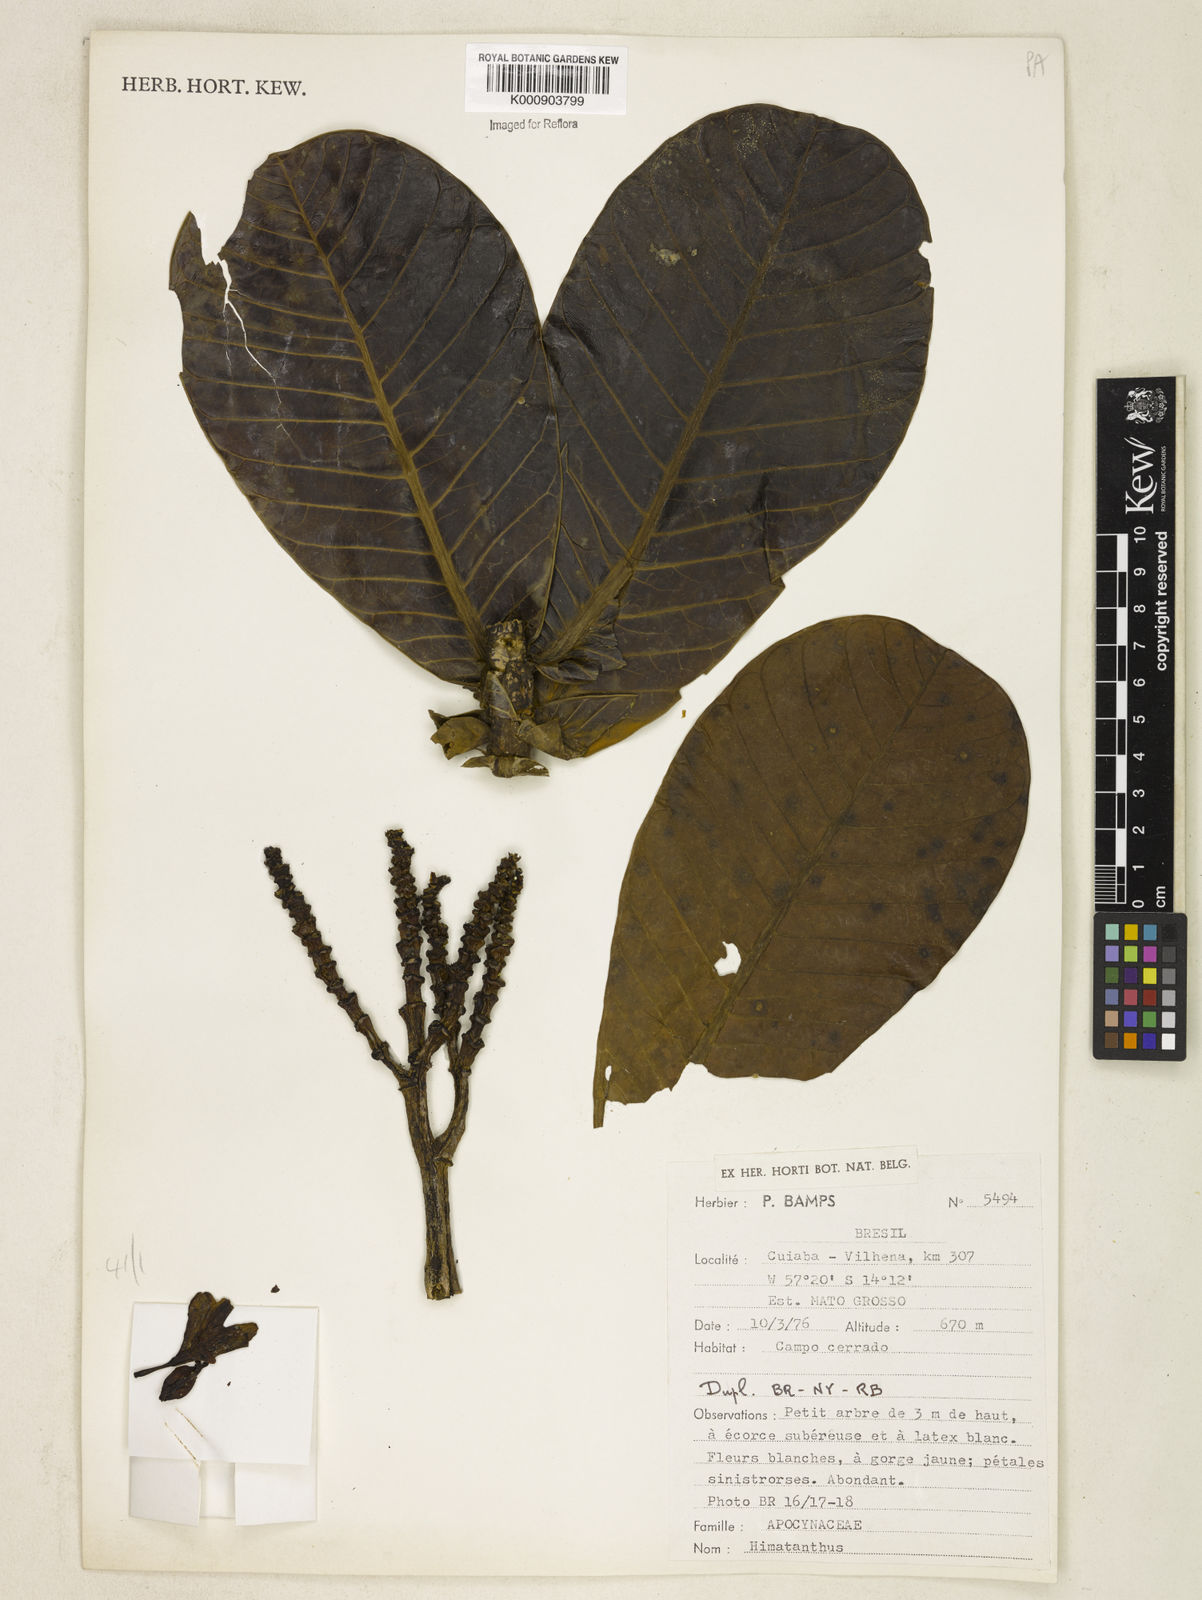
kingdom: Plantae
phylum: Tracheophyta
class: Magnoliopsida
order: Gentianales
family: Apocynaceae
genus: Himatanthus
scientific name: Himatanthus
